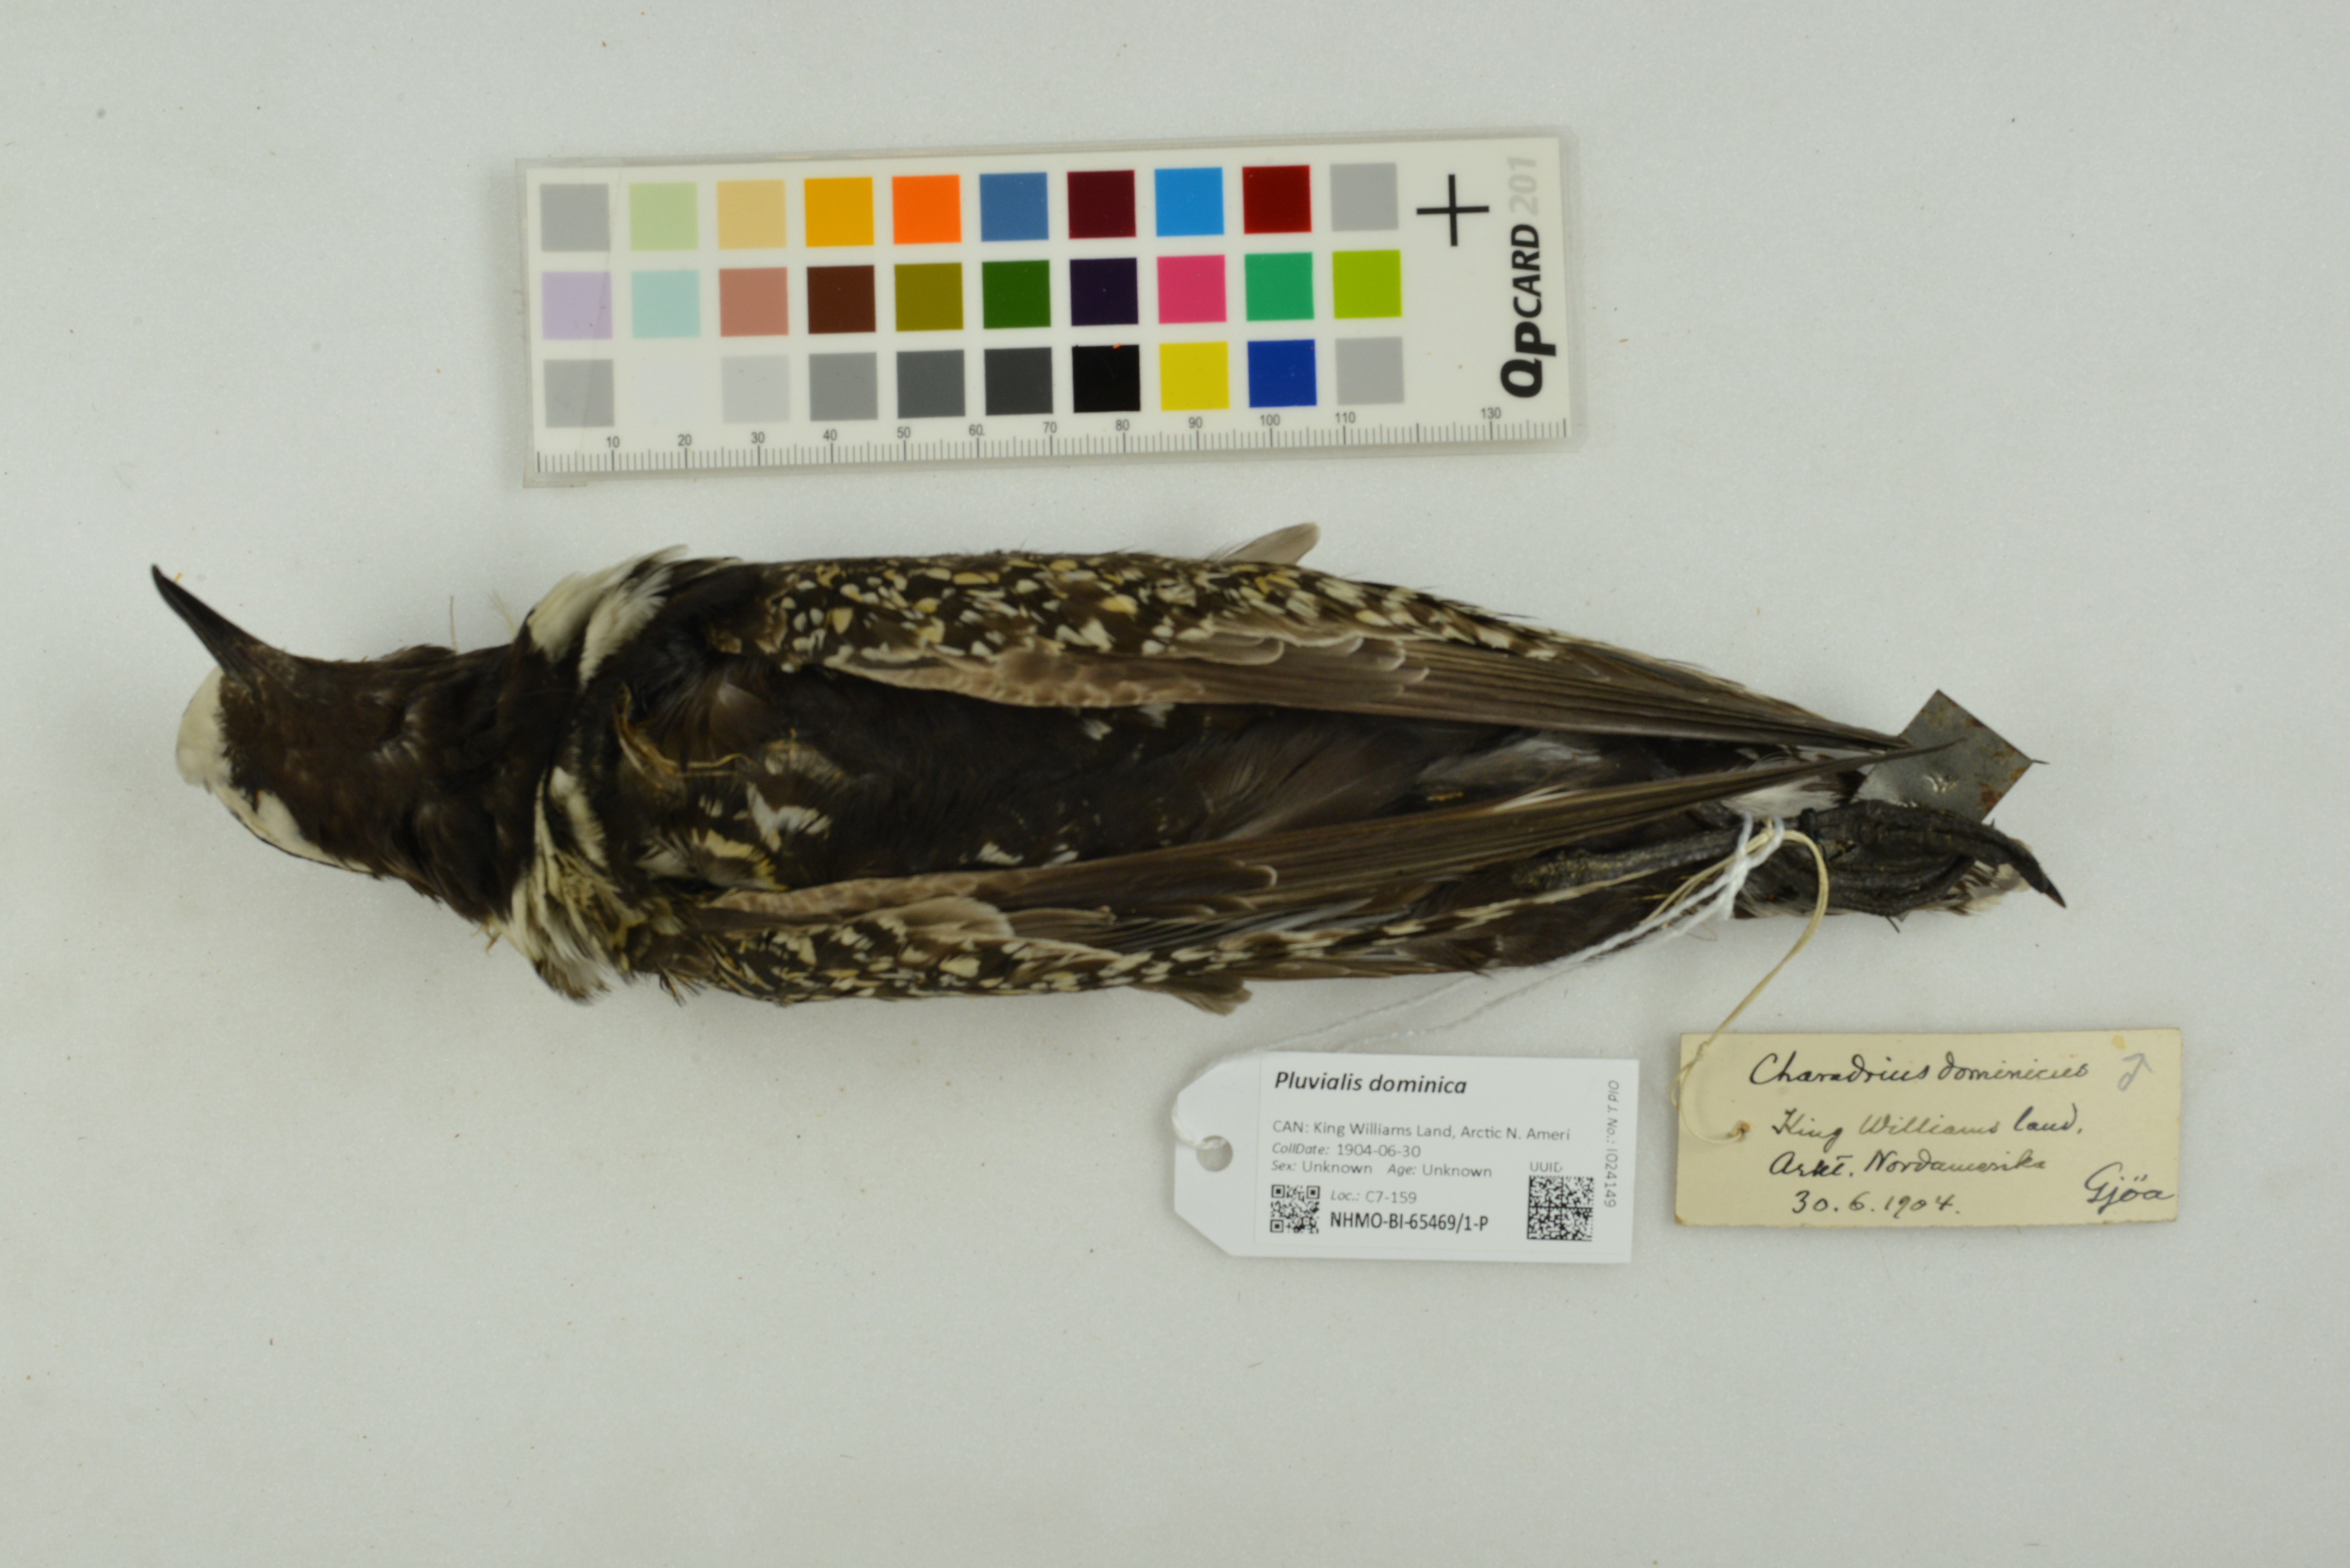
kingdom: Animalia
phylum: Chordata
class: Aves
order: Charadriiformes
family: Charadriidae
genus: Pluvialis
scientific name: Pluvialis dominica
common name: American golden plover
